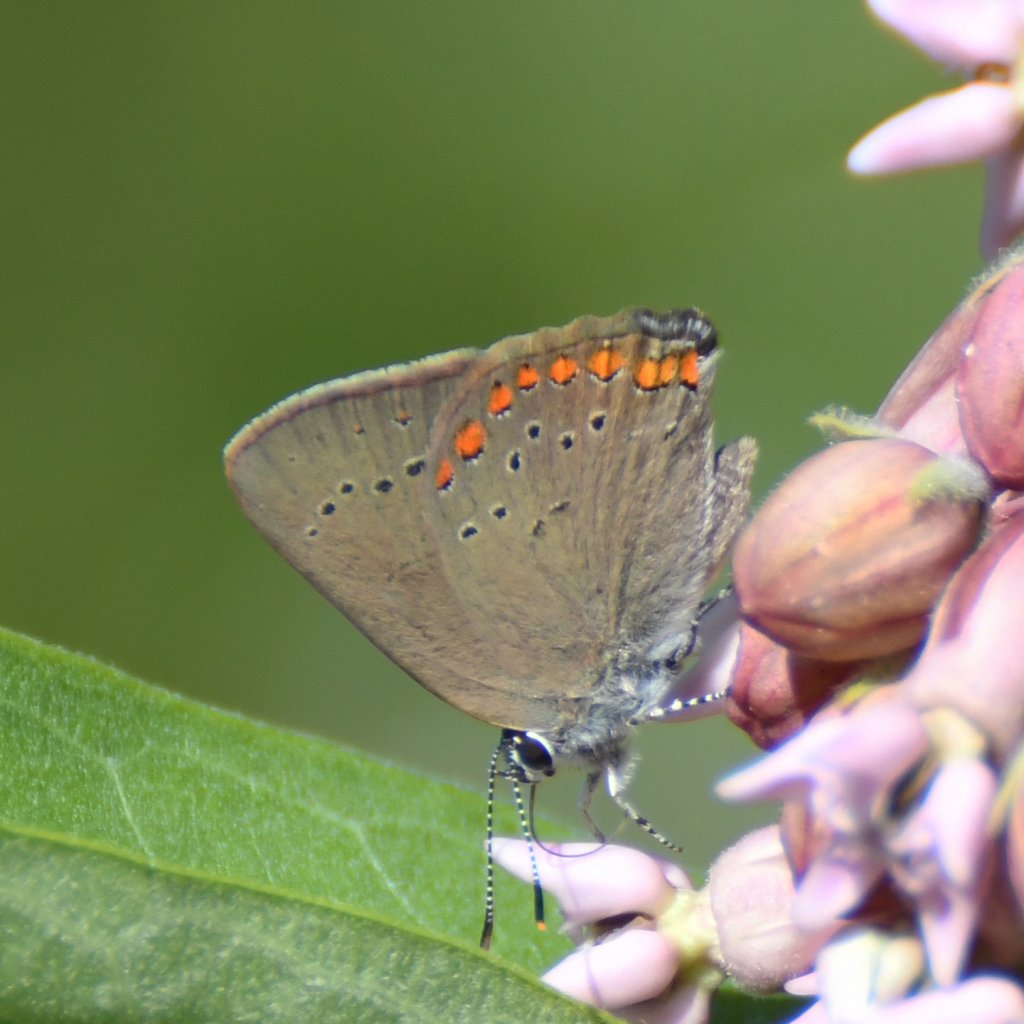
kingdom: Animalia
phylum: Arthropoda
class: Insecta
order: Lepidoptera
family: Lycaenidae
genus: Harkenclenus
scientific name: Harkenclenus titus
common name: Coral Hairstreak
